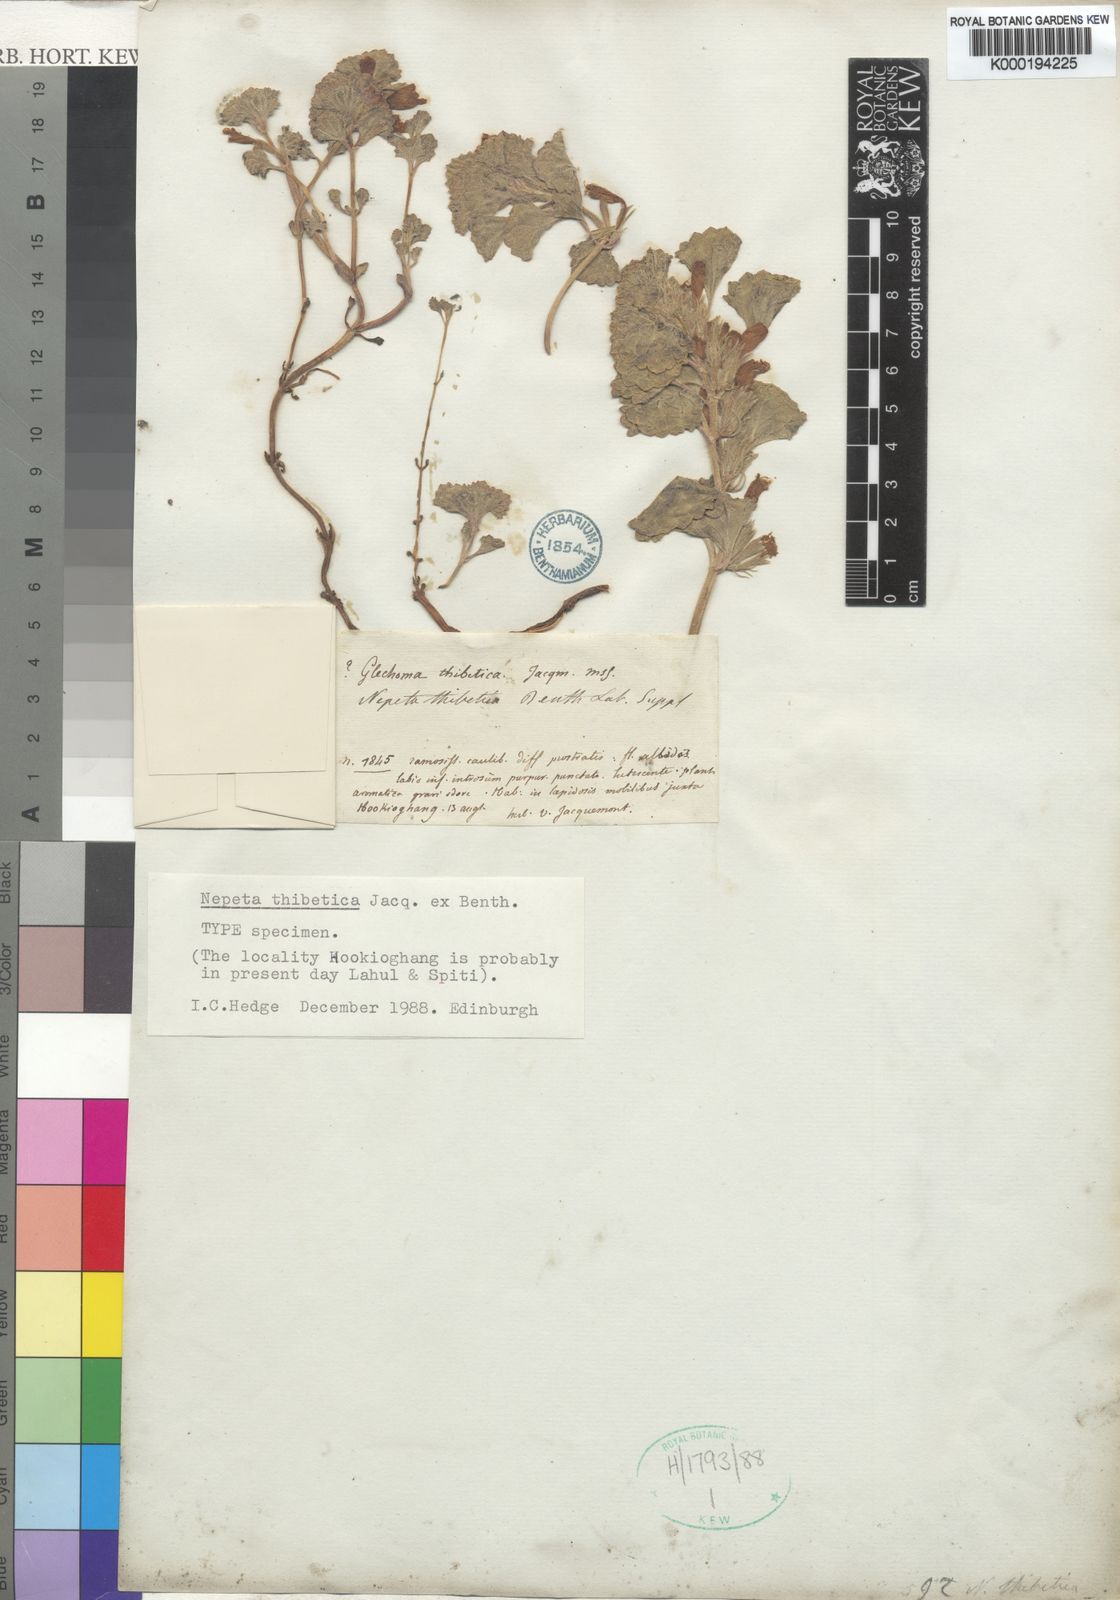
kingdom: Plantae
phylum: Tracheophyta
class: Magnoliopsida
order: Lamiales
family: Lamiaceae
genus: Nepeta
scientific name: Nepeta rotundifolia
